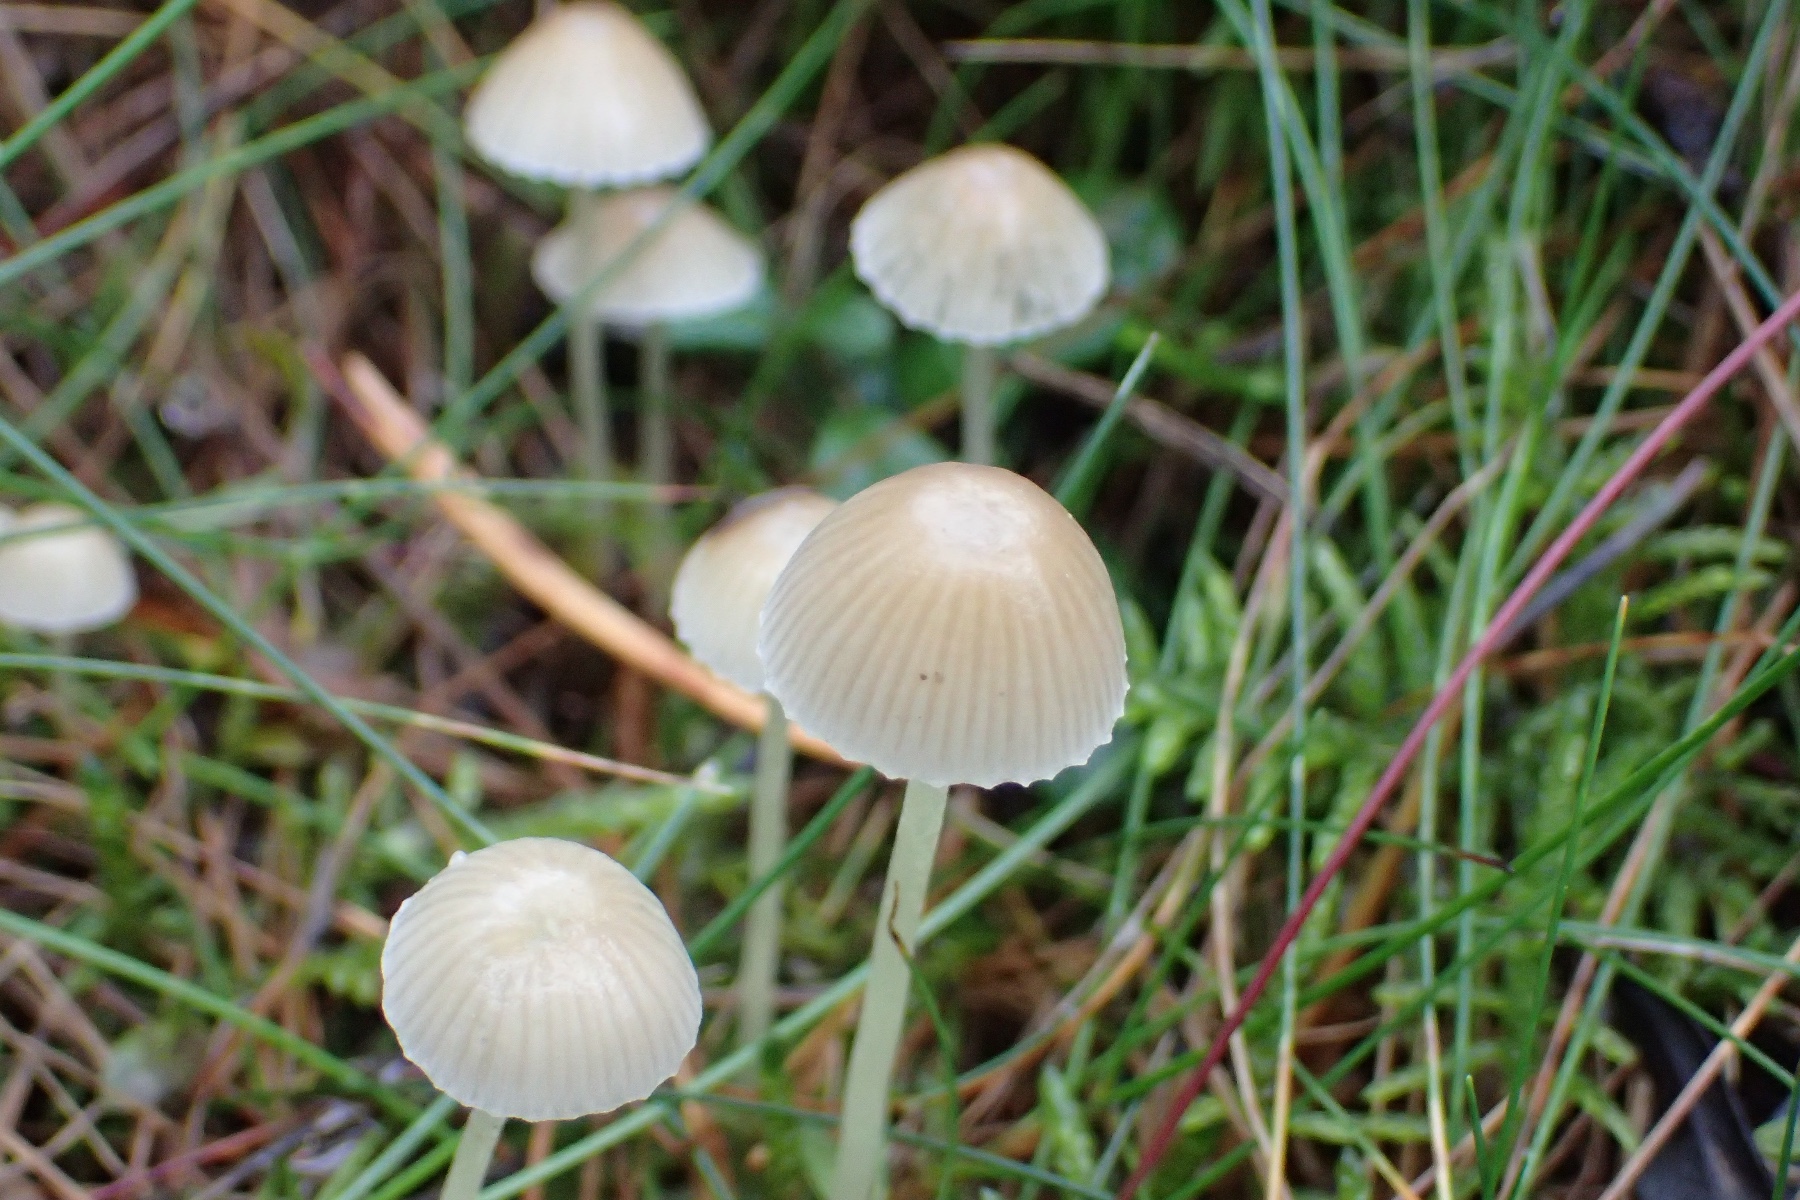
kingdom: Fungi
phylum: Basidiomycota
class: Agaricomycetes
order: Agaricales
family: Mycenaceae
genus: Mycena
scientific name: Mycena epipterygia
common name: gulstokket huesvamp
